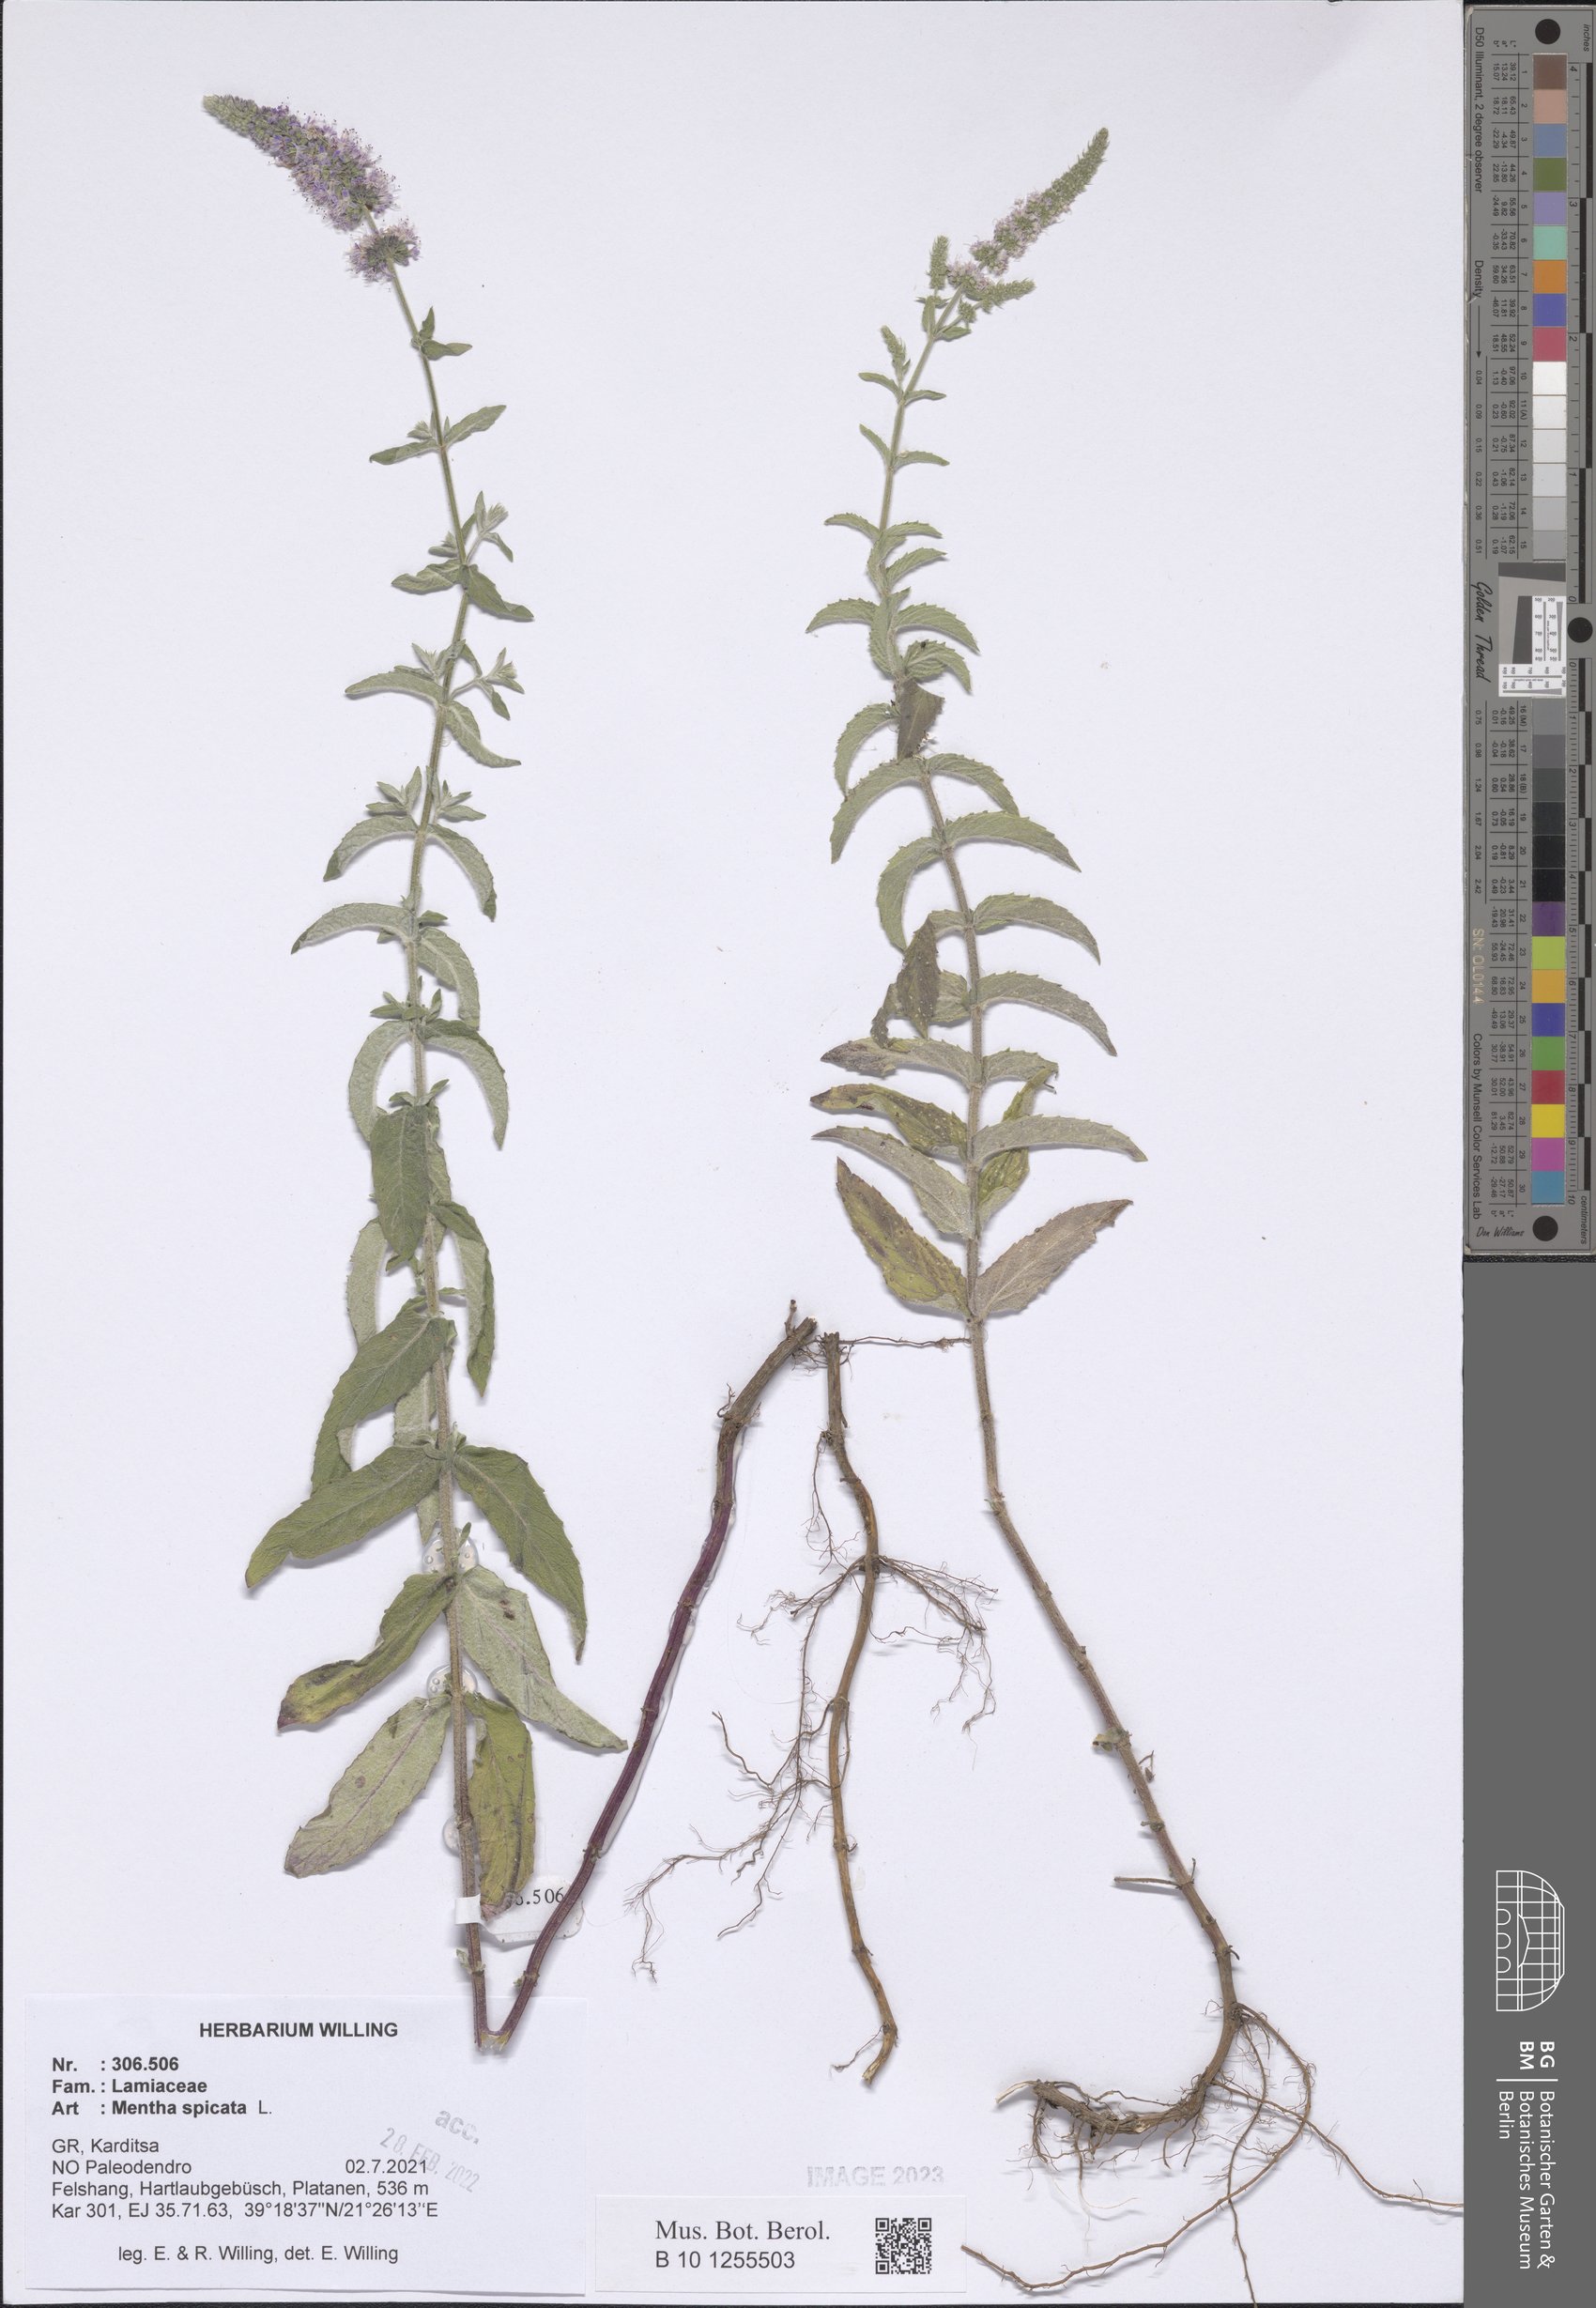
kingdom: Plantae
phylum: Tracheophyta
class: Magnoliopsida
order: Lamiales
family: Lamiaceae
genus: Mentha
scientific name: Mentha spicata
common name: Spearmint
